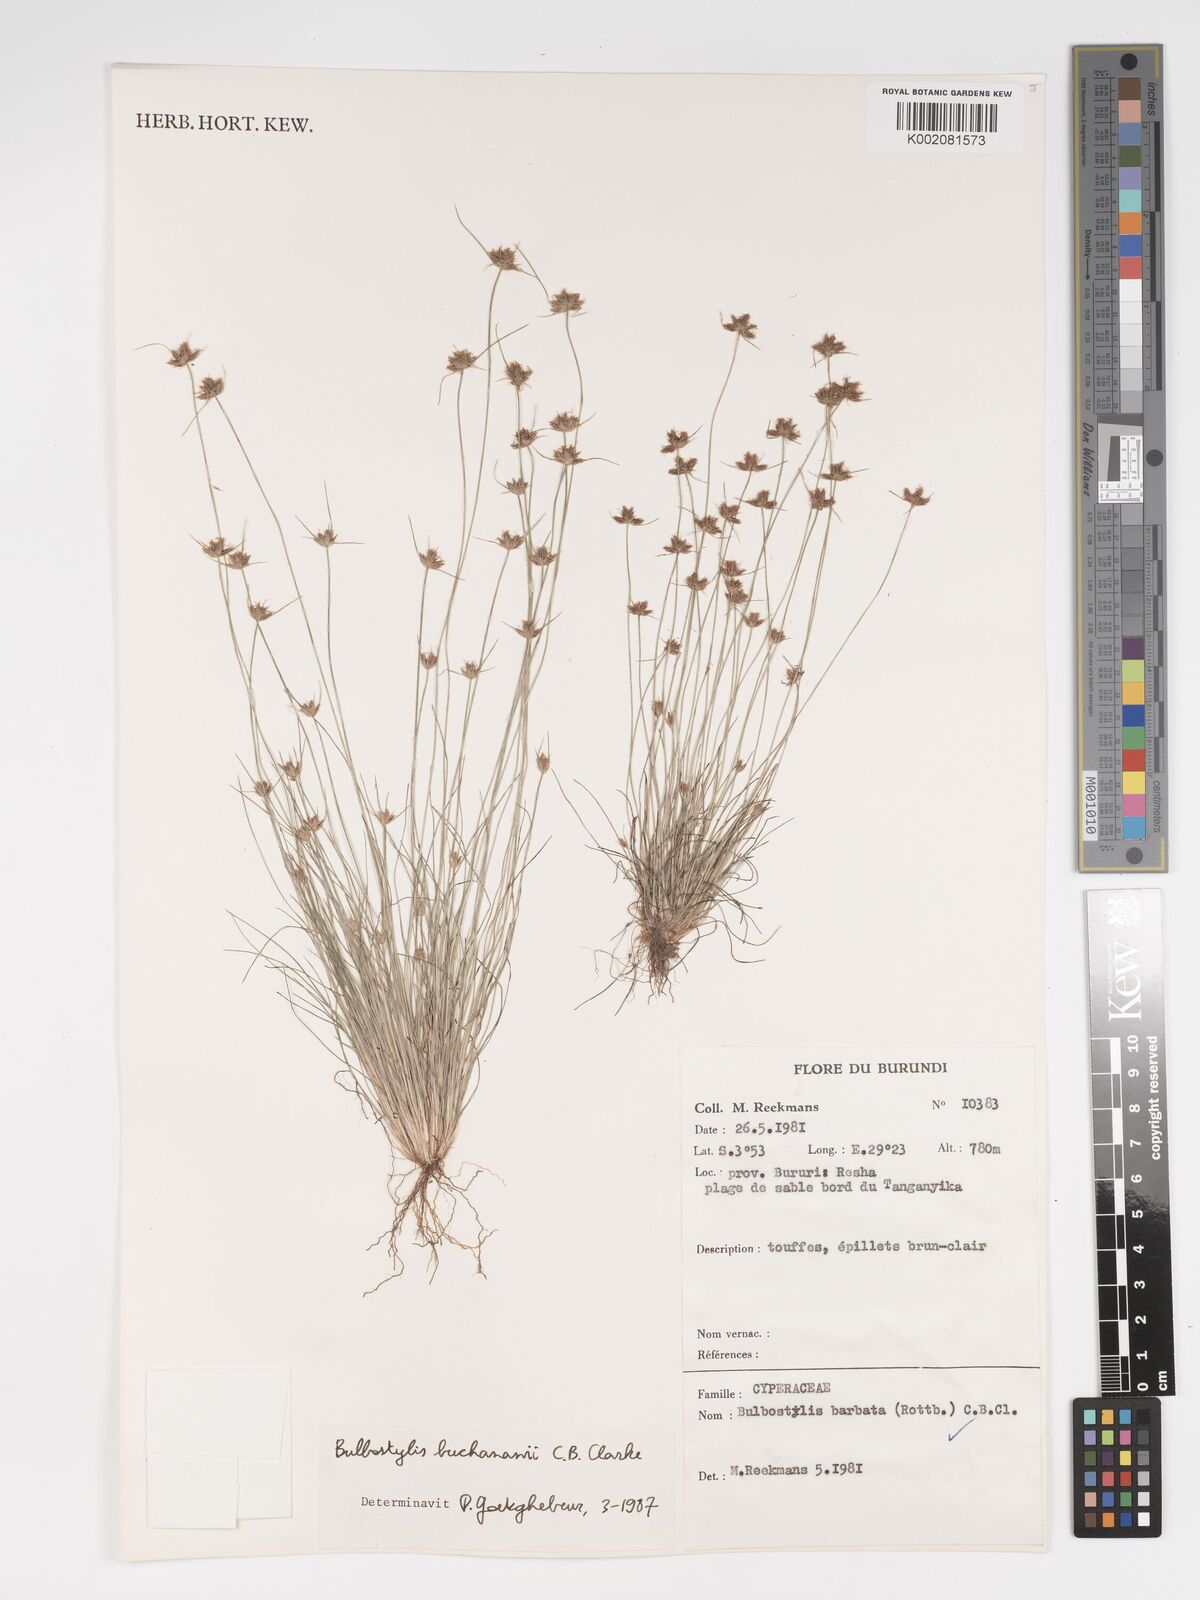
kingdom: Plantae
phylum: Tracheophyta
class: Liliopsida
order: Poales
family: Cyperaceae
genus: Bulbostylis
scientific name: Bulbostylis buchananii
